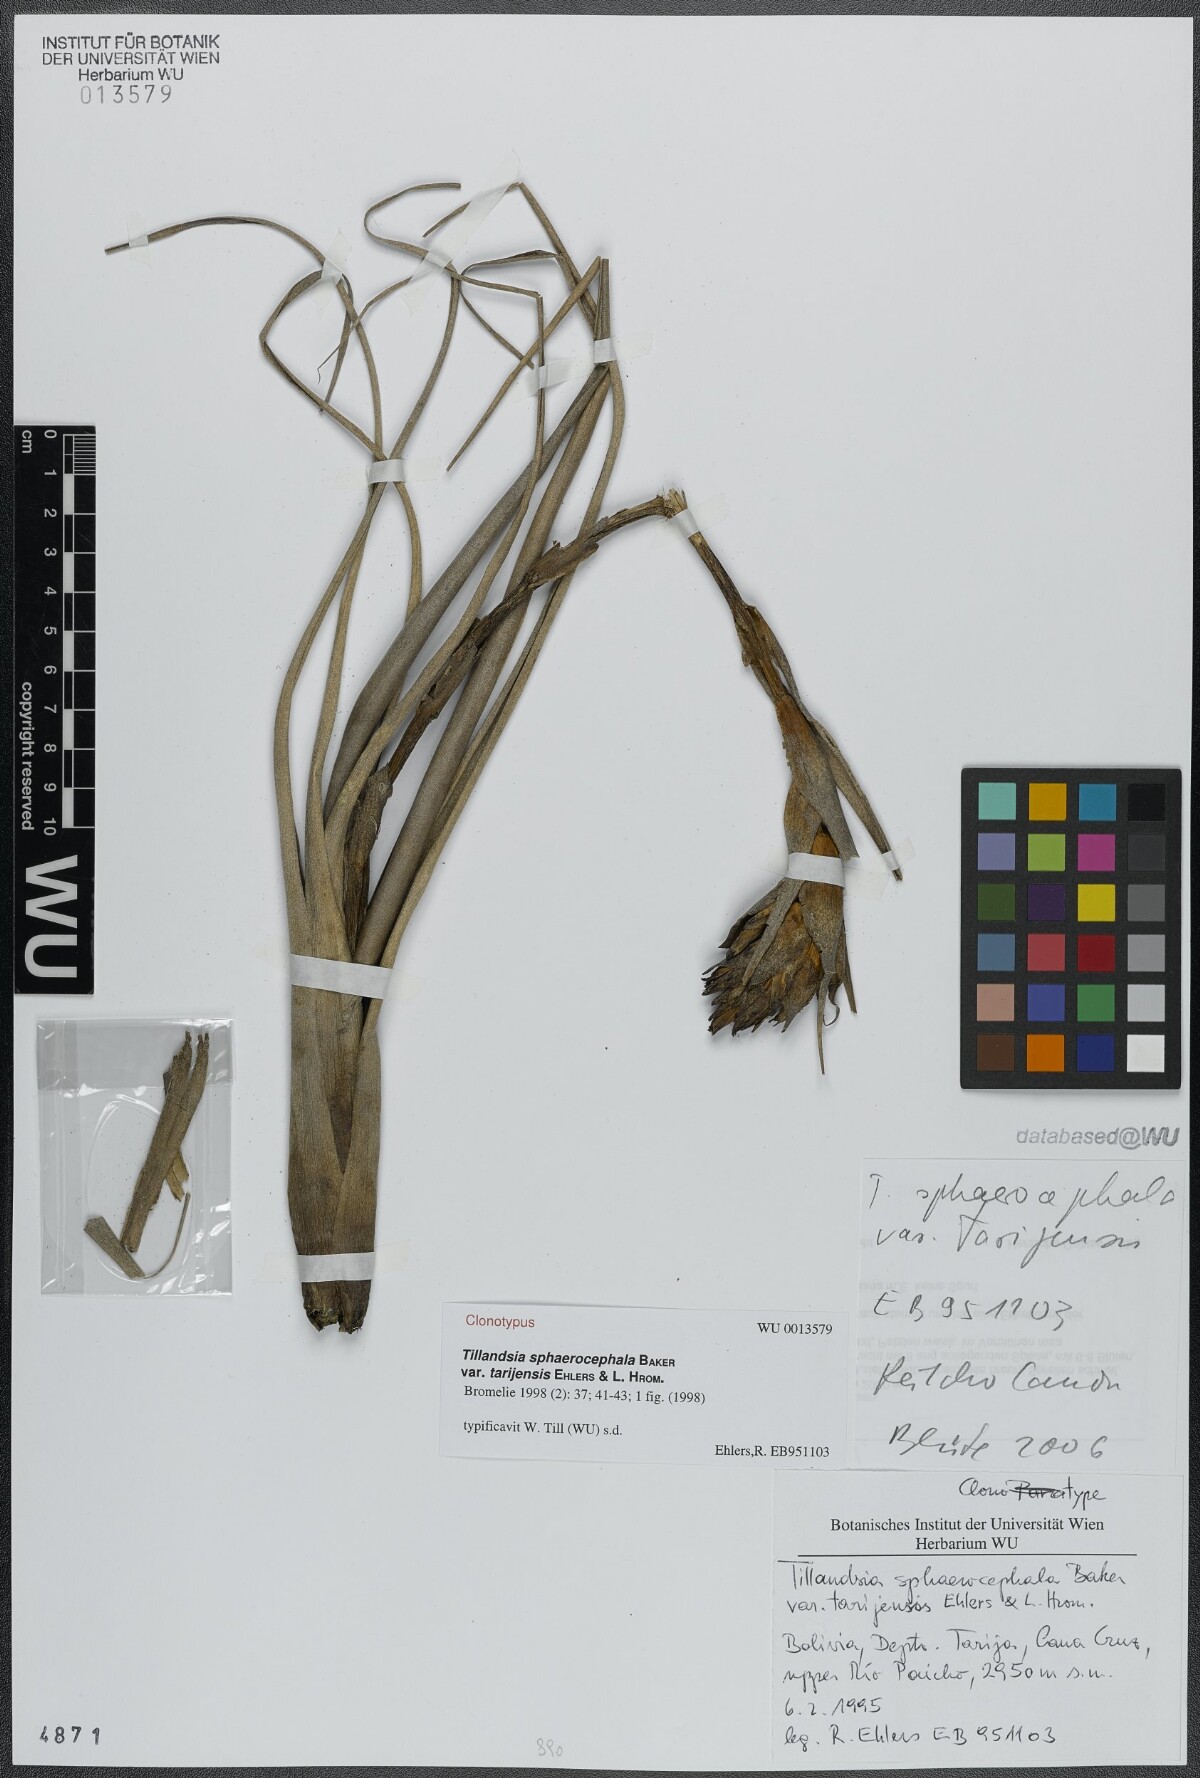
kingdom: Plantae
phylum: Tracheophyta
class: Liliopsida
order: Poales
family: Bromeliaceae
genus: Tillandsia
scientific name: Tillandsia sphaerocephala
